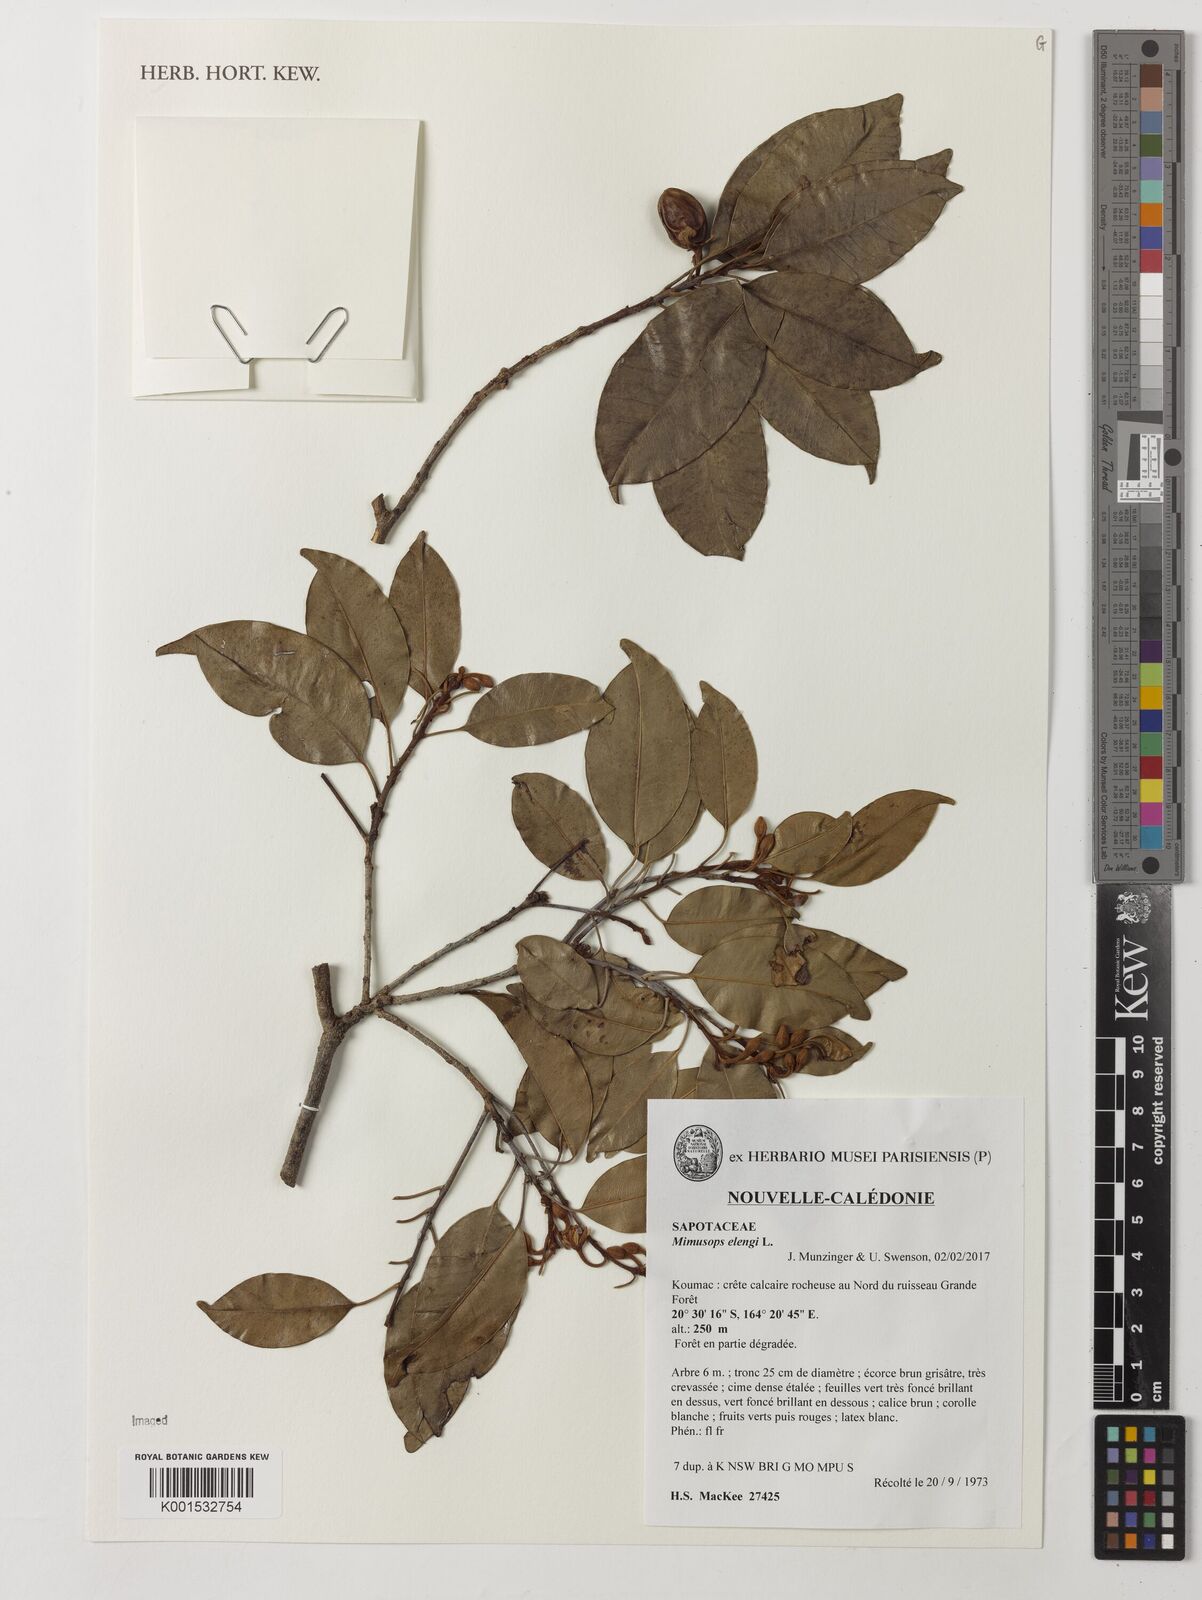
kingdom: Plantae
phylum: Tracheophyta
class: Magnoliopsida
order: Ericales
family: Sapotaceae
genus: Mimusops
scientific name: Mimusops elengi
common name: Spanish cherry
